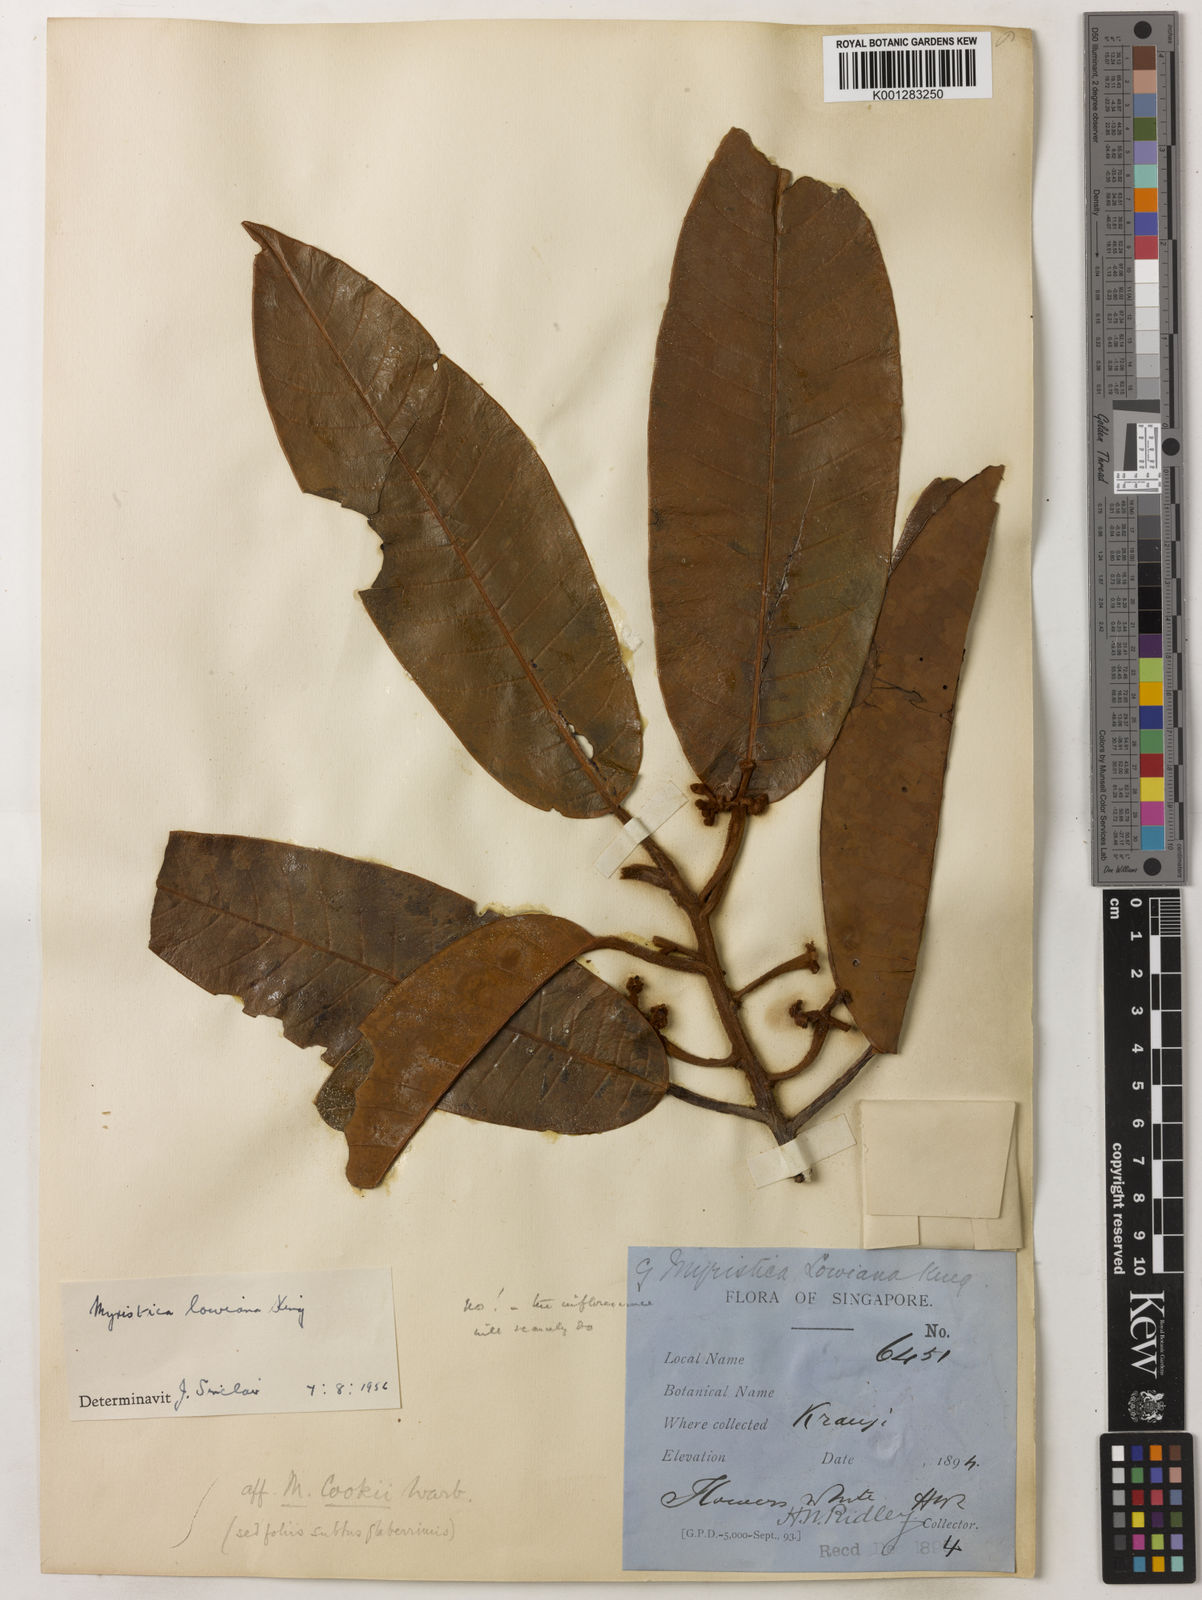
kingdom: Plantae
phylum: Tracheophyta
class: Magnoliopsida
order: Magnoliales
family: Myristicaceae
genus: Myristica
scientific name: Myristica lowiana
